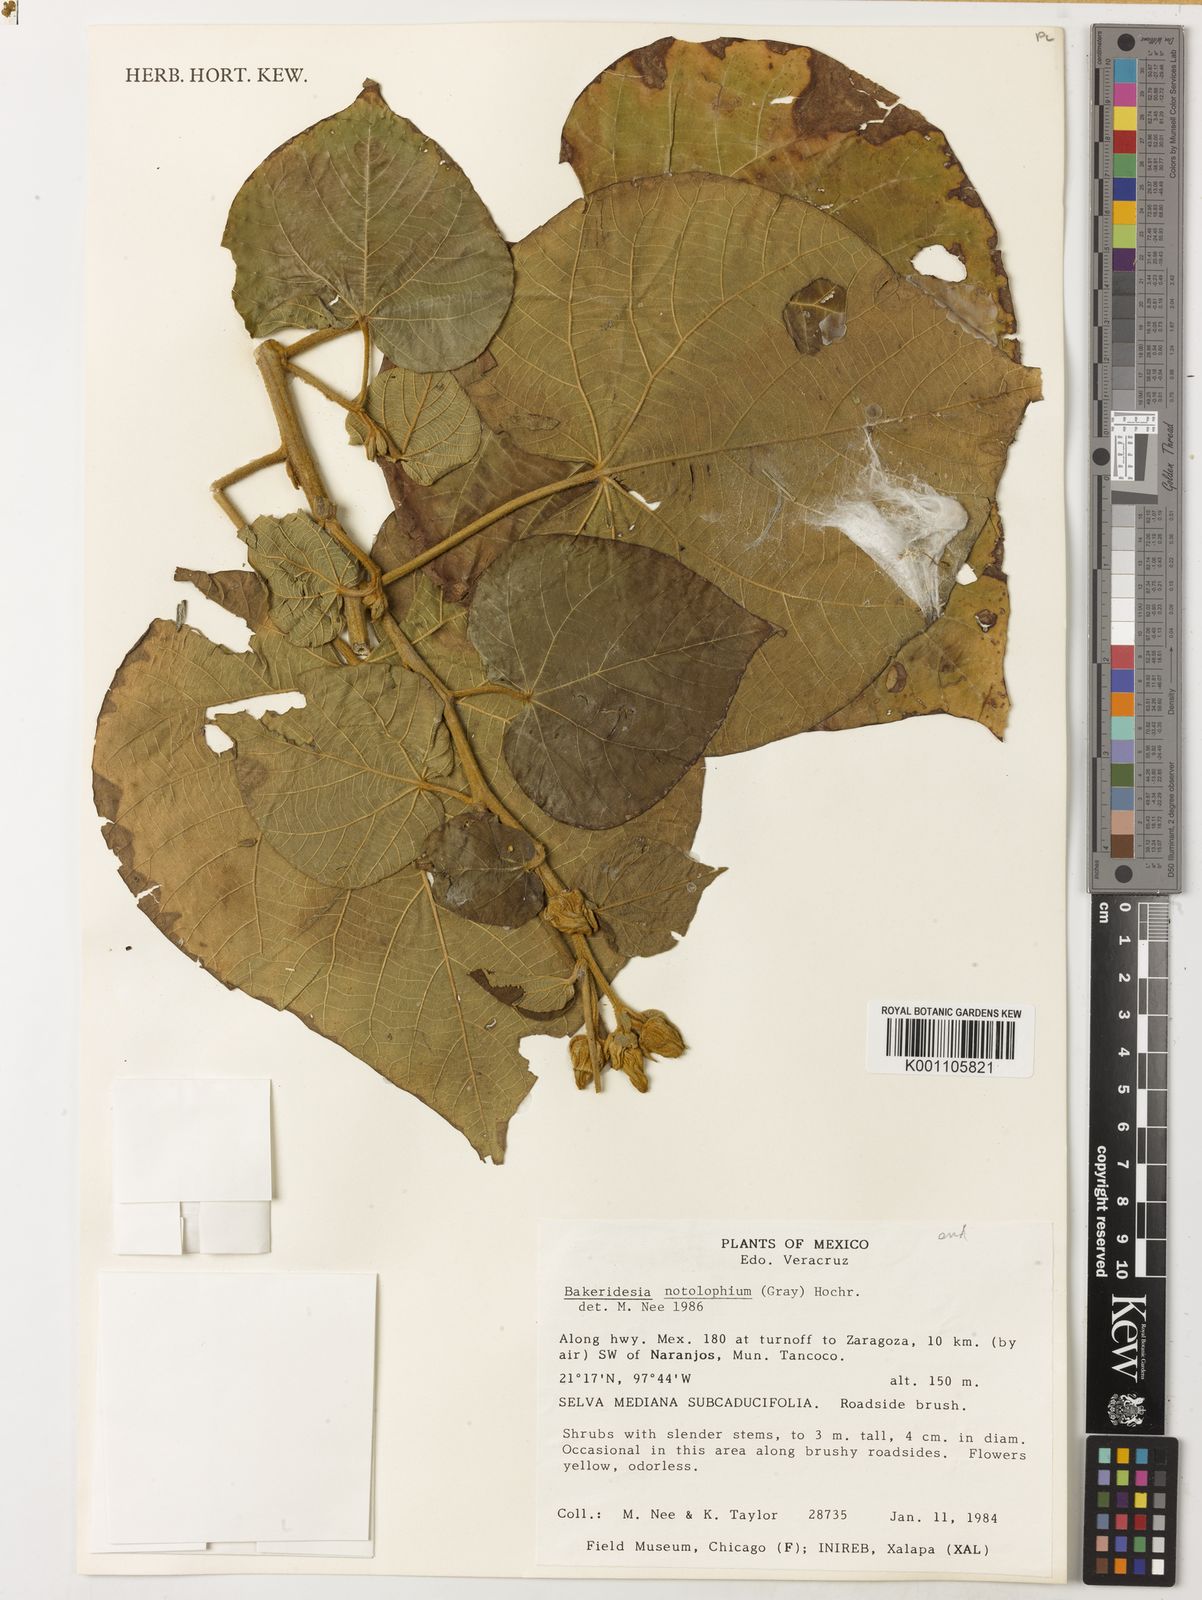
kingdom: Plantae
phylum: Tracheophyta
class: Magnoliopsida
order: Malvales
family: Malvaceae
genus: Bakeridesia
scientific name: Bakeridesia notolophium
